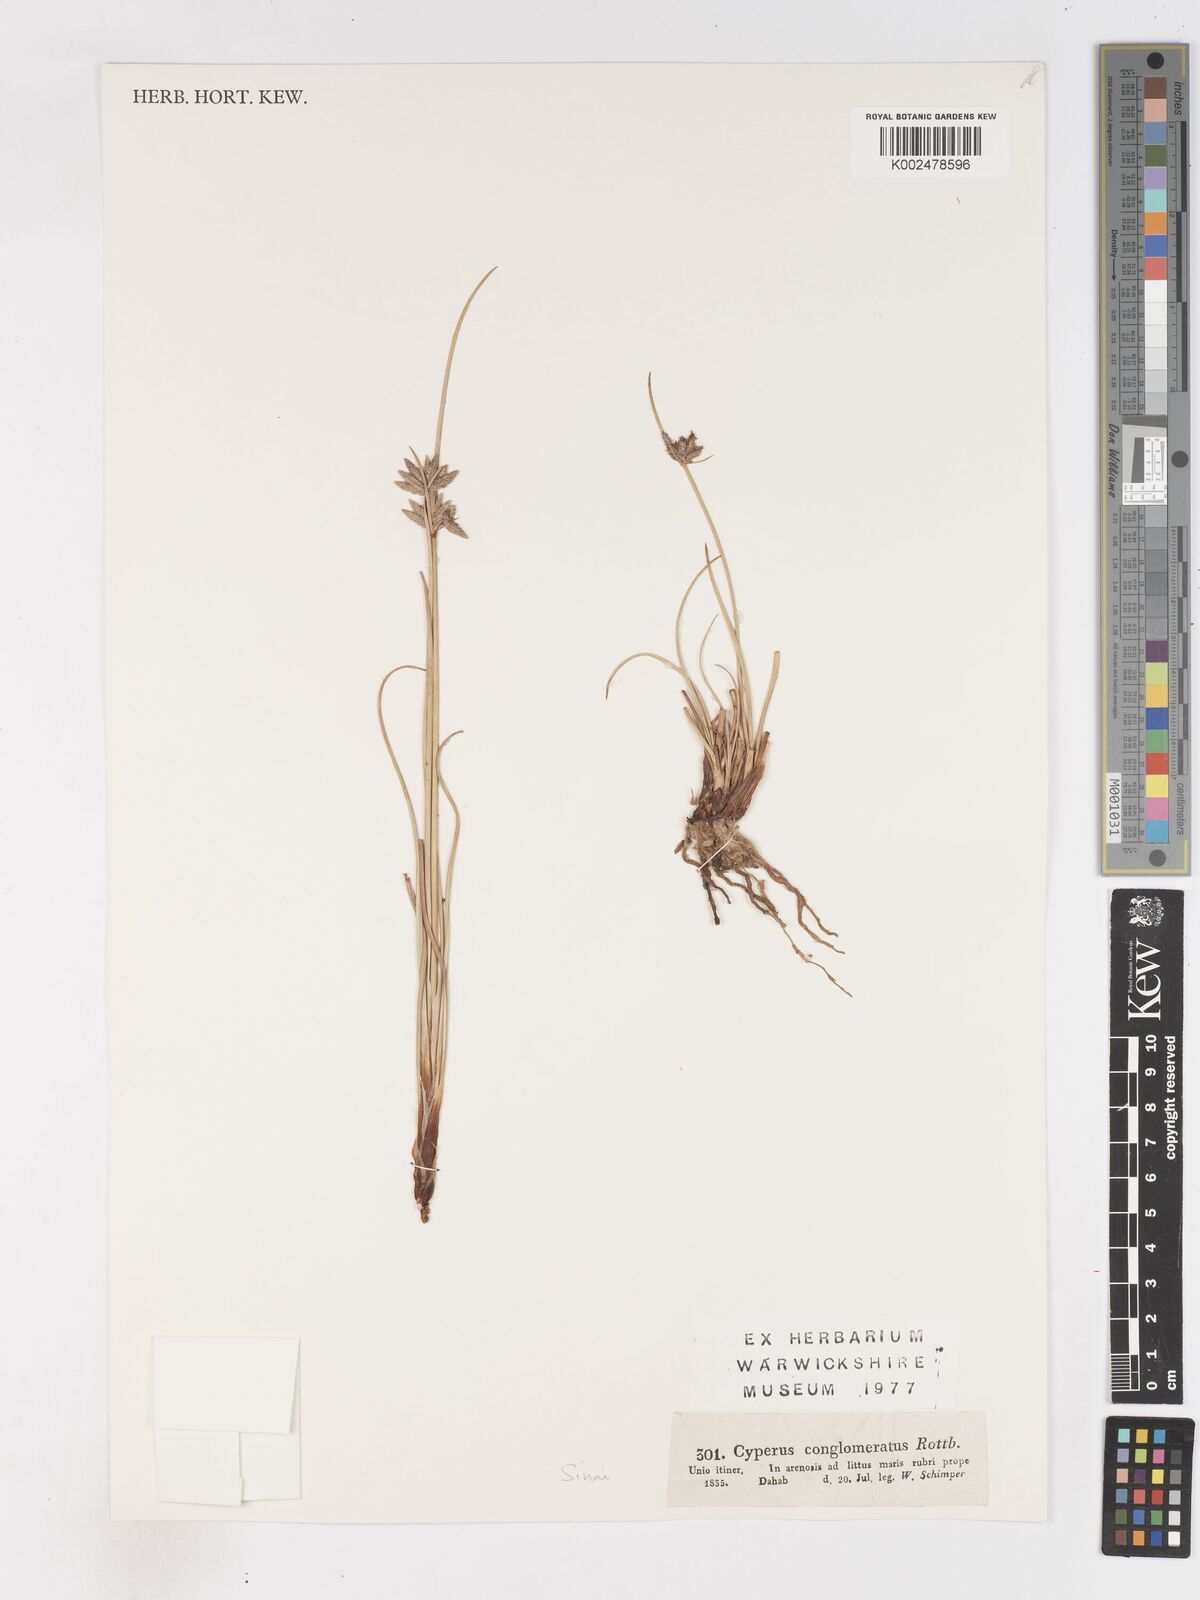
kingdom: Plantae
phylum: Tracheophyta
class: Liliopsida
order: Poales
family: Cyperaceae
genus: Cyperus
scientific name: Cyperus conglomeratus
